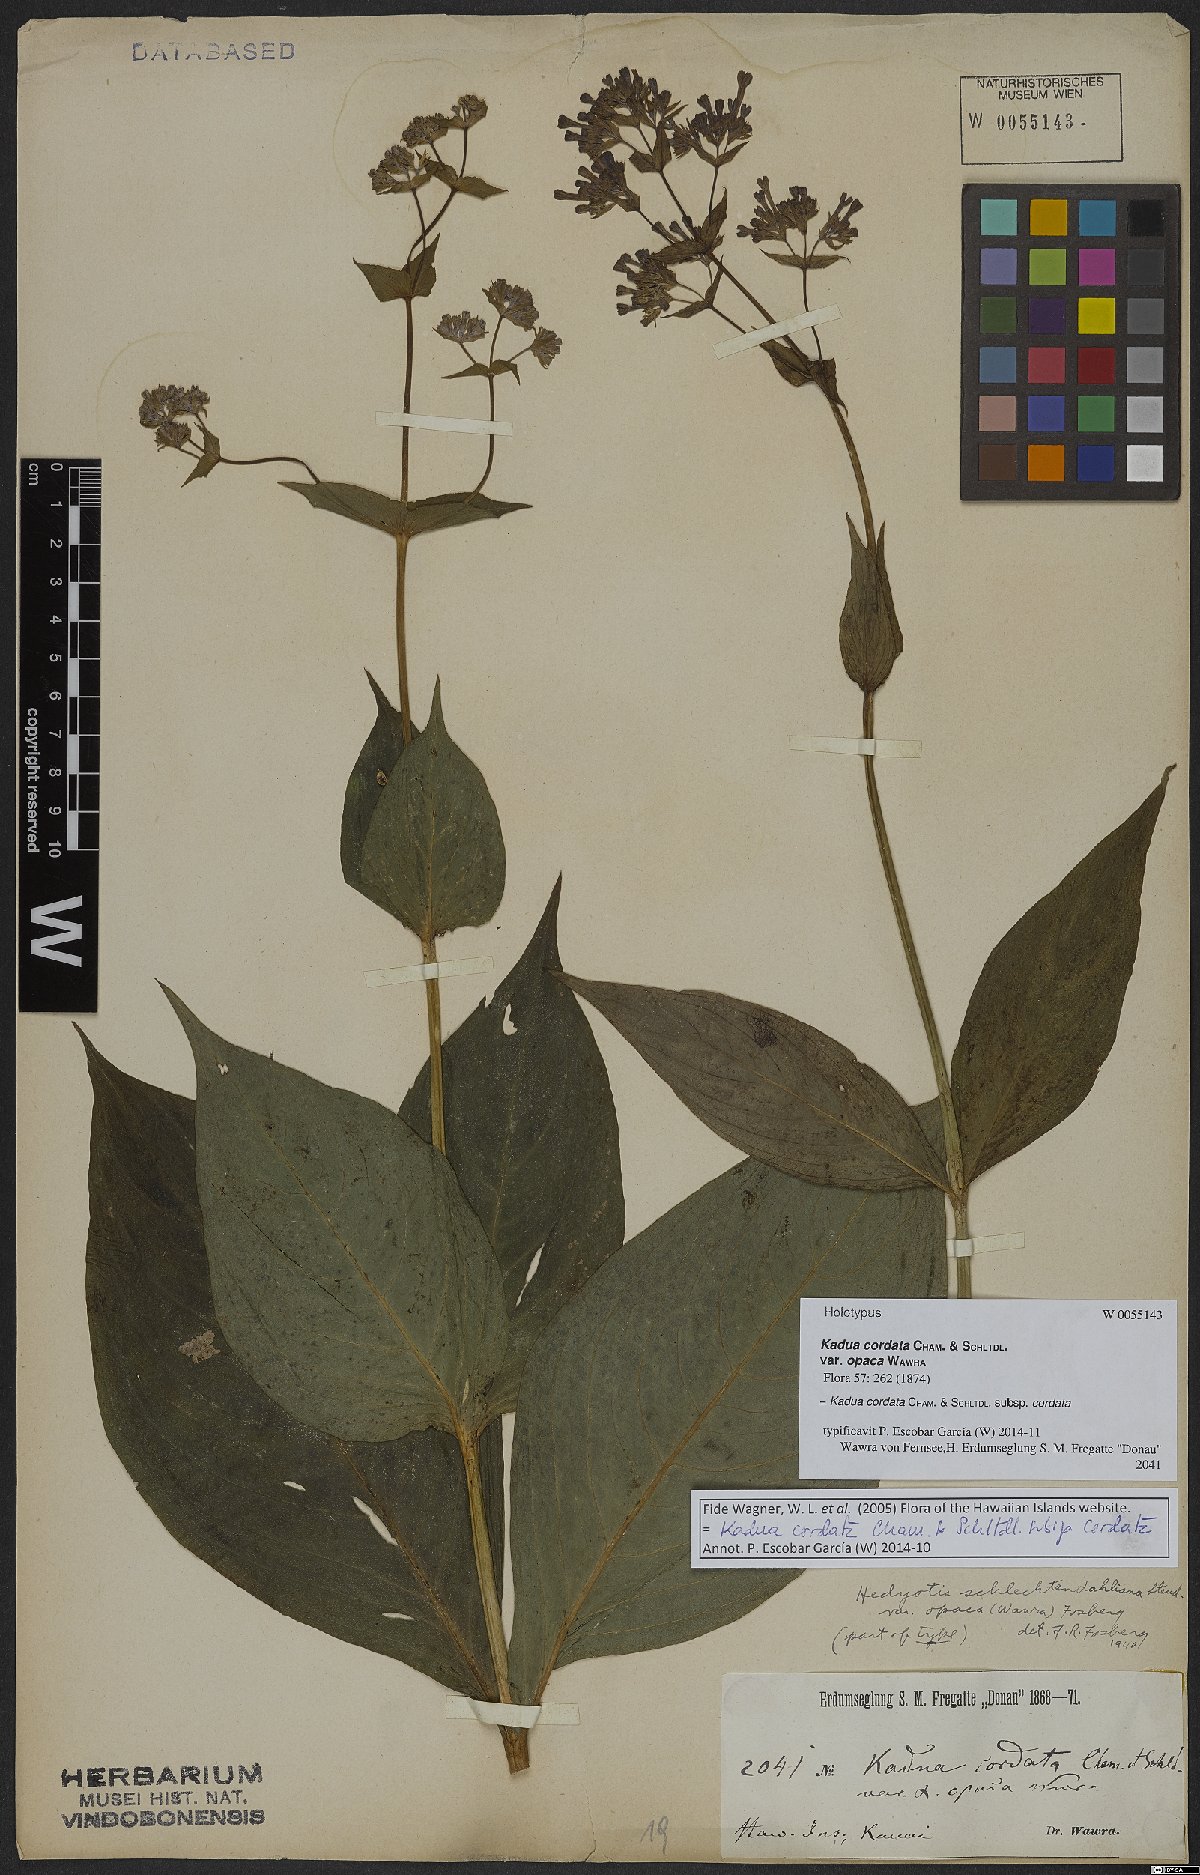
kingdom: Plantae
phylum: Tracheophyta
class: Magnoliopsida
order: Gentianales
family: Rubiaceae
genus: Kadua
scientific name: Kadua cordata
